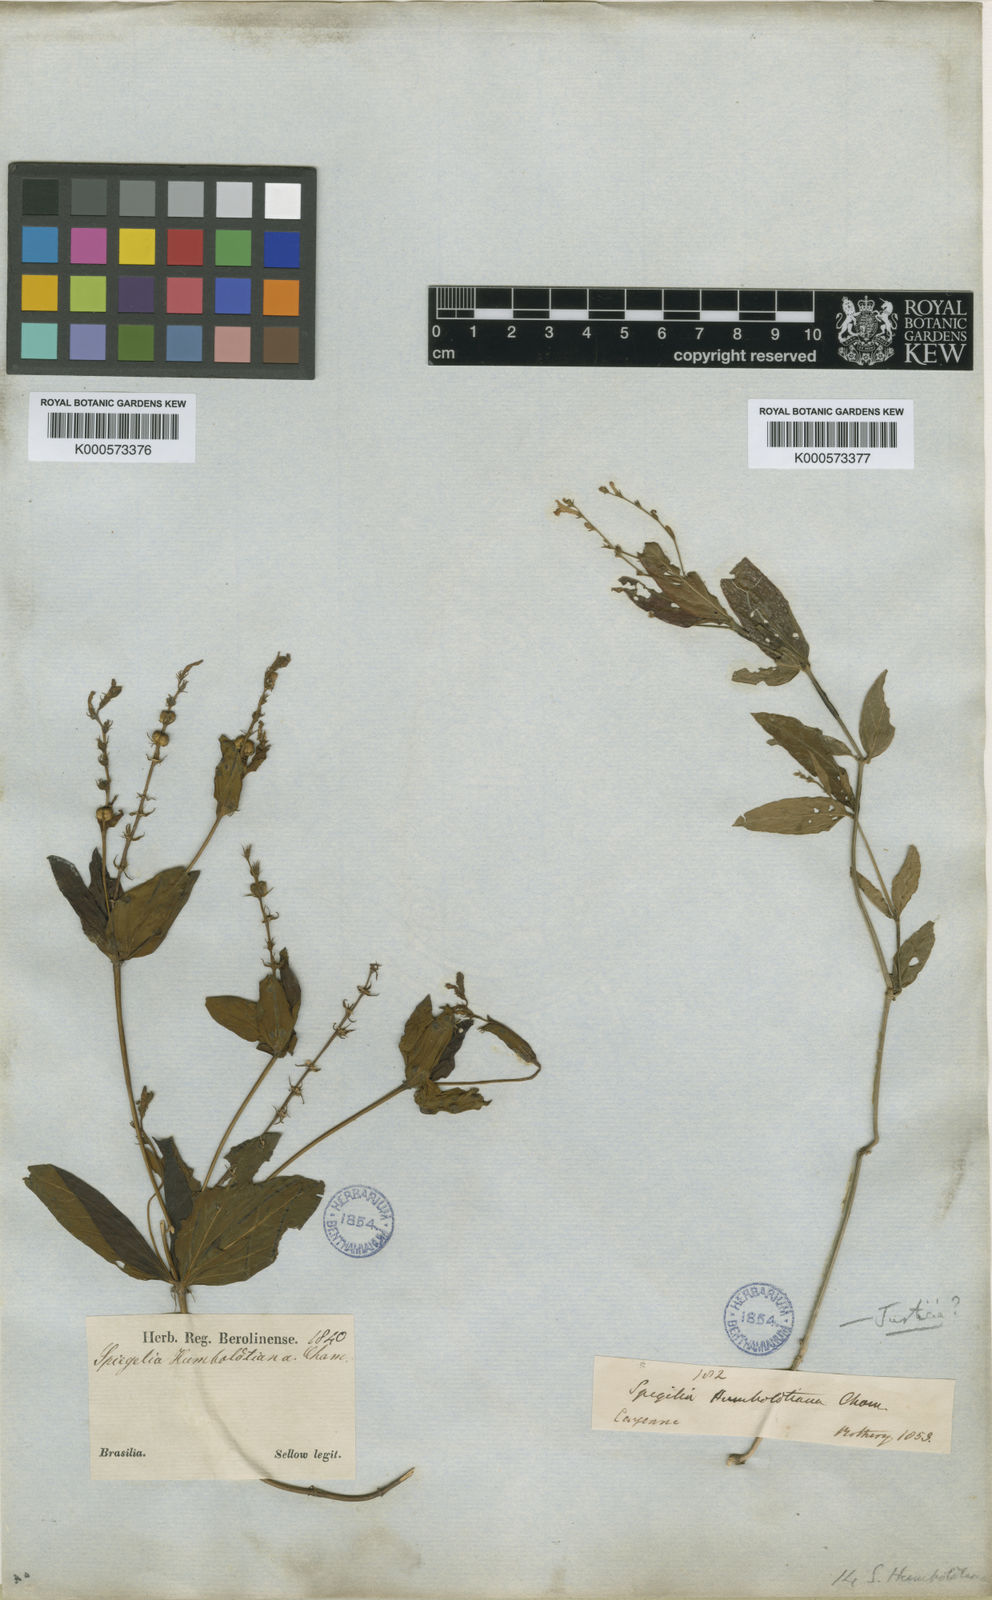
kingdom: Plantae
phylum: Tracheophyta
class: Magnoliopsida
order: Gentianales
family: Loganiaceae
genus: Spigelia
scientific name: Spigelia humboldtiana
